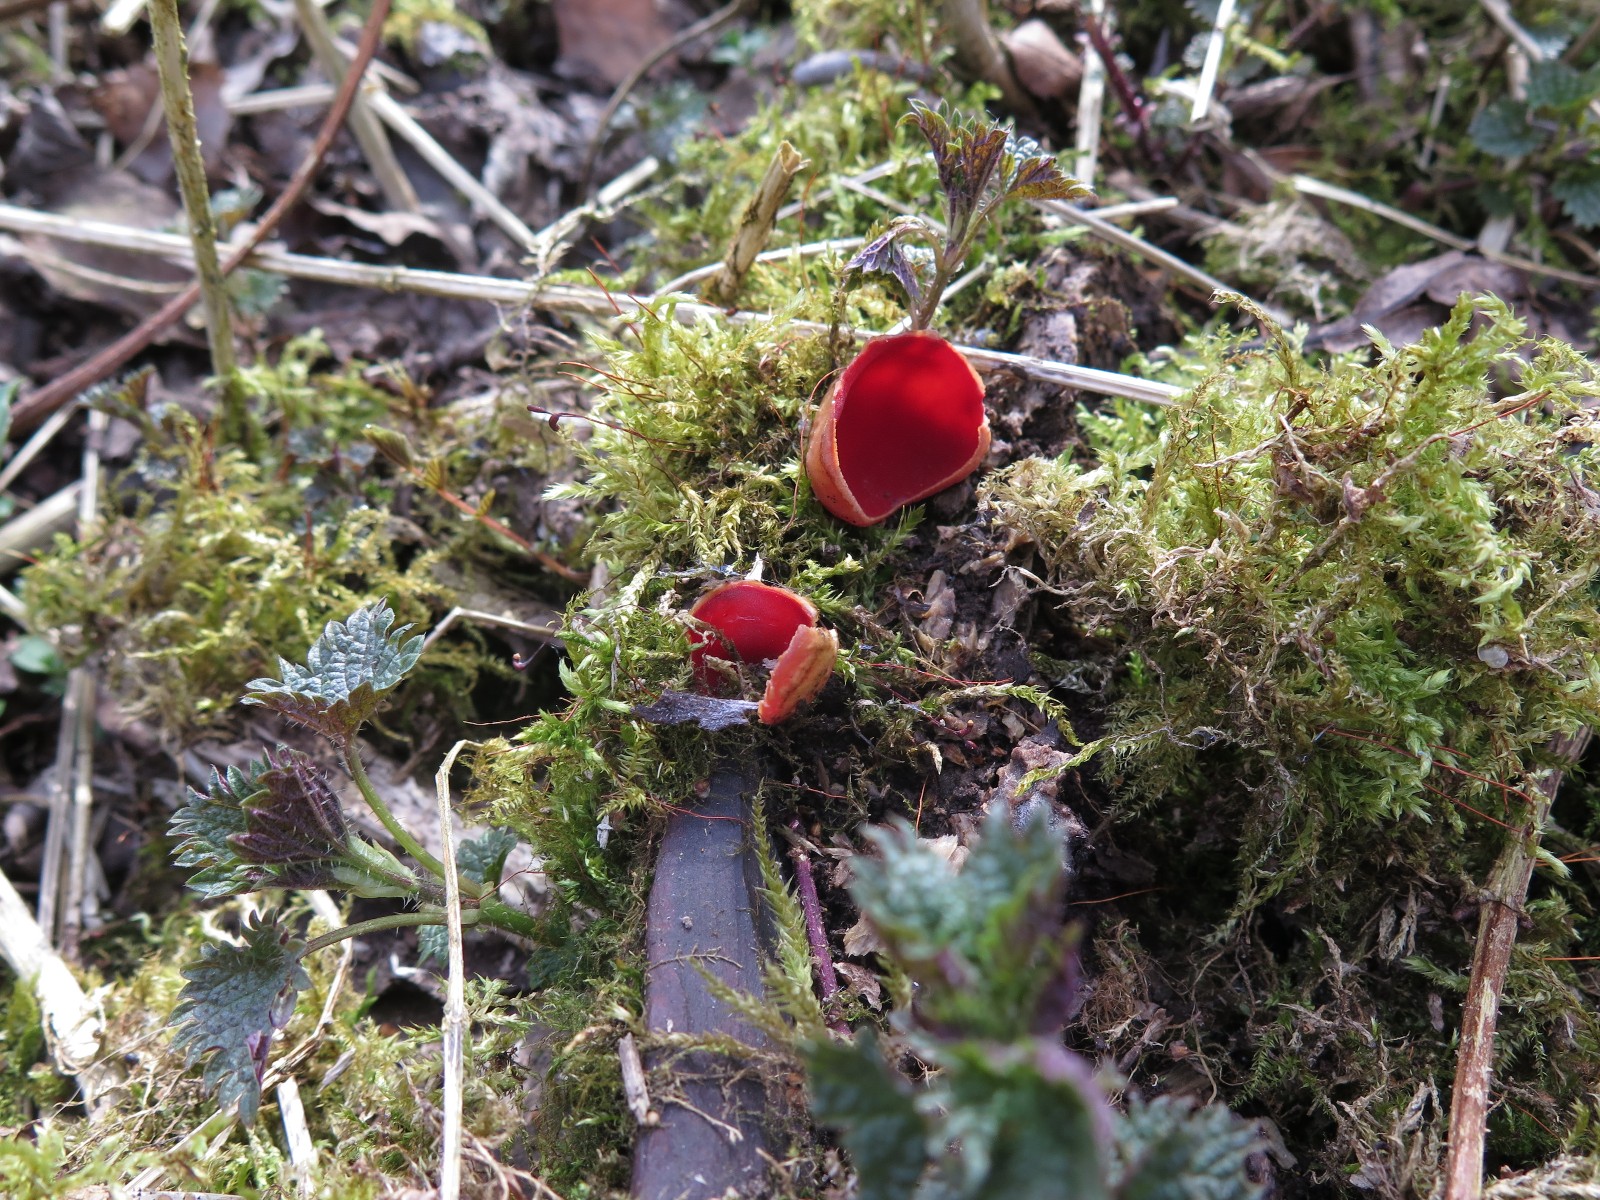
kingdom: Fungi
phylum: Ascomycota
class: Pezizomycetes
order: Pezizales
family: Sarcoscyphaceae
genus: Sarcoscypha
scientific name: Sarcoscypha austriaca
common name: krølhåret pragtbæger
